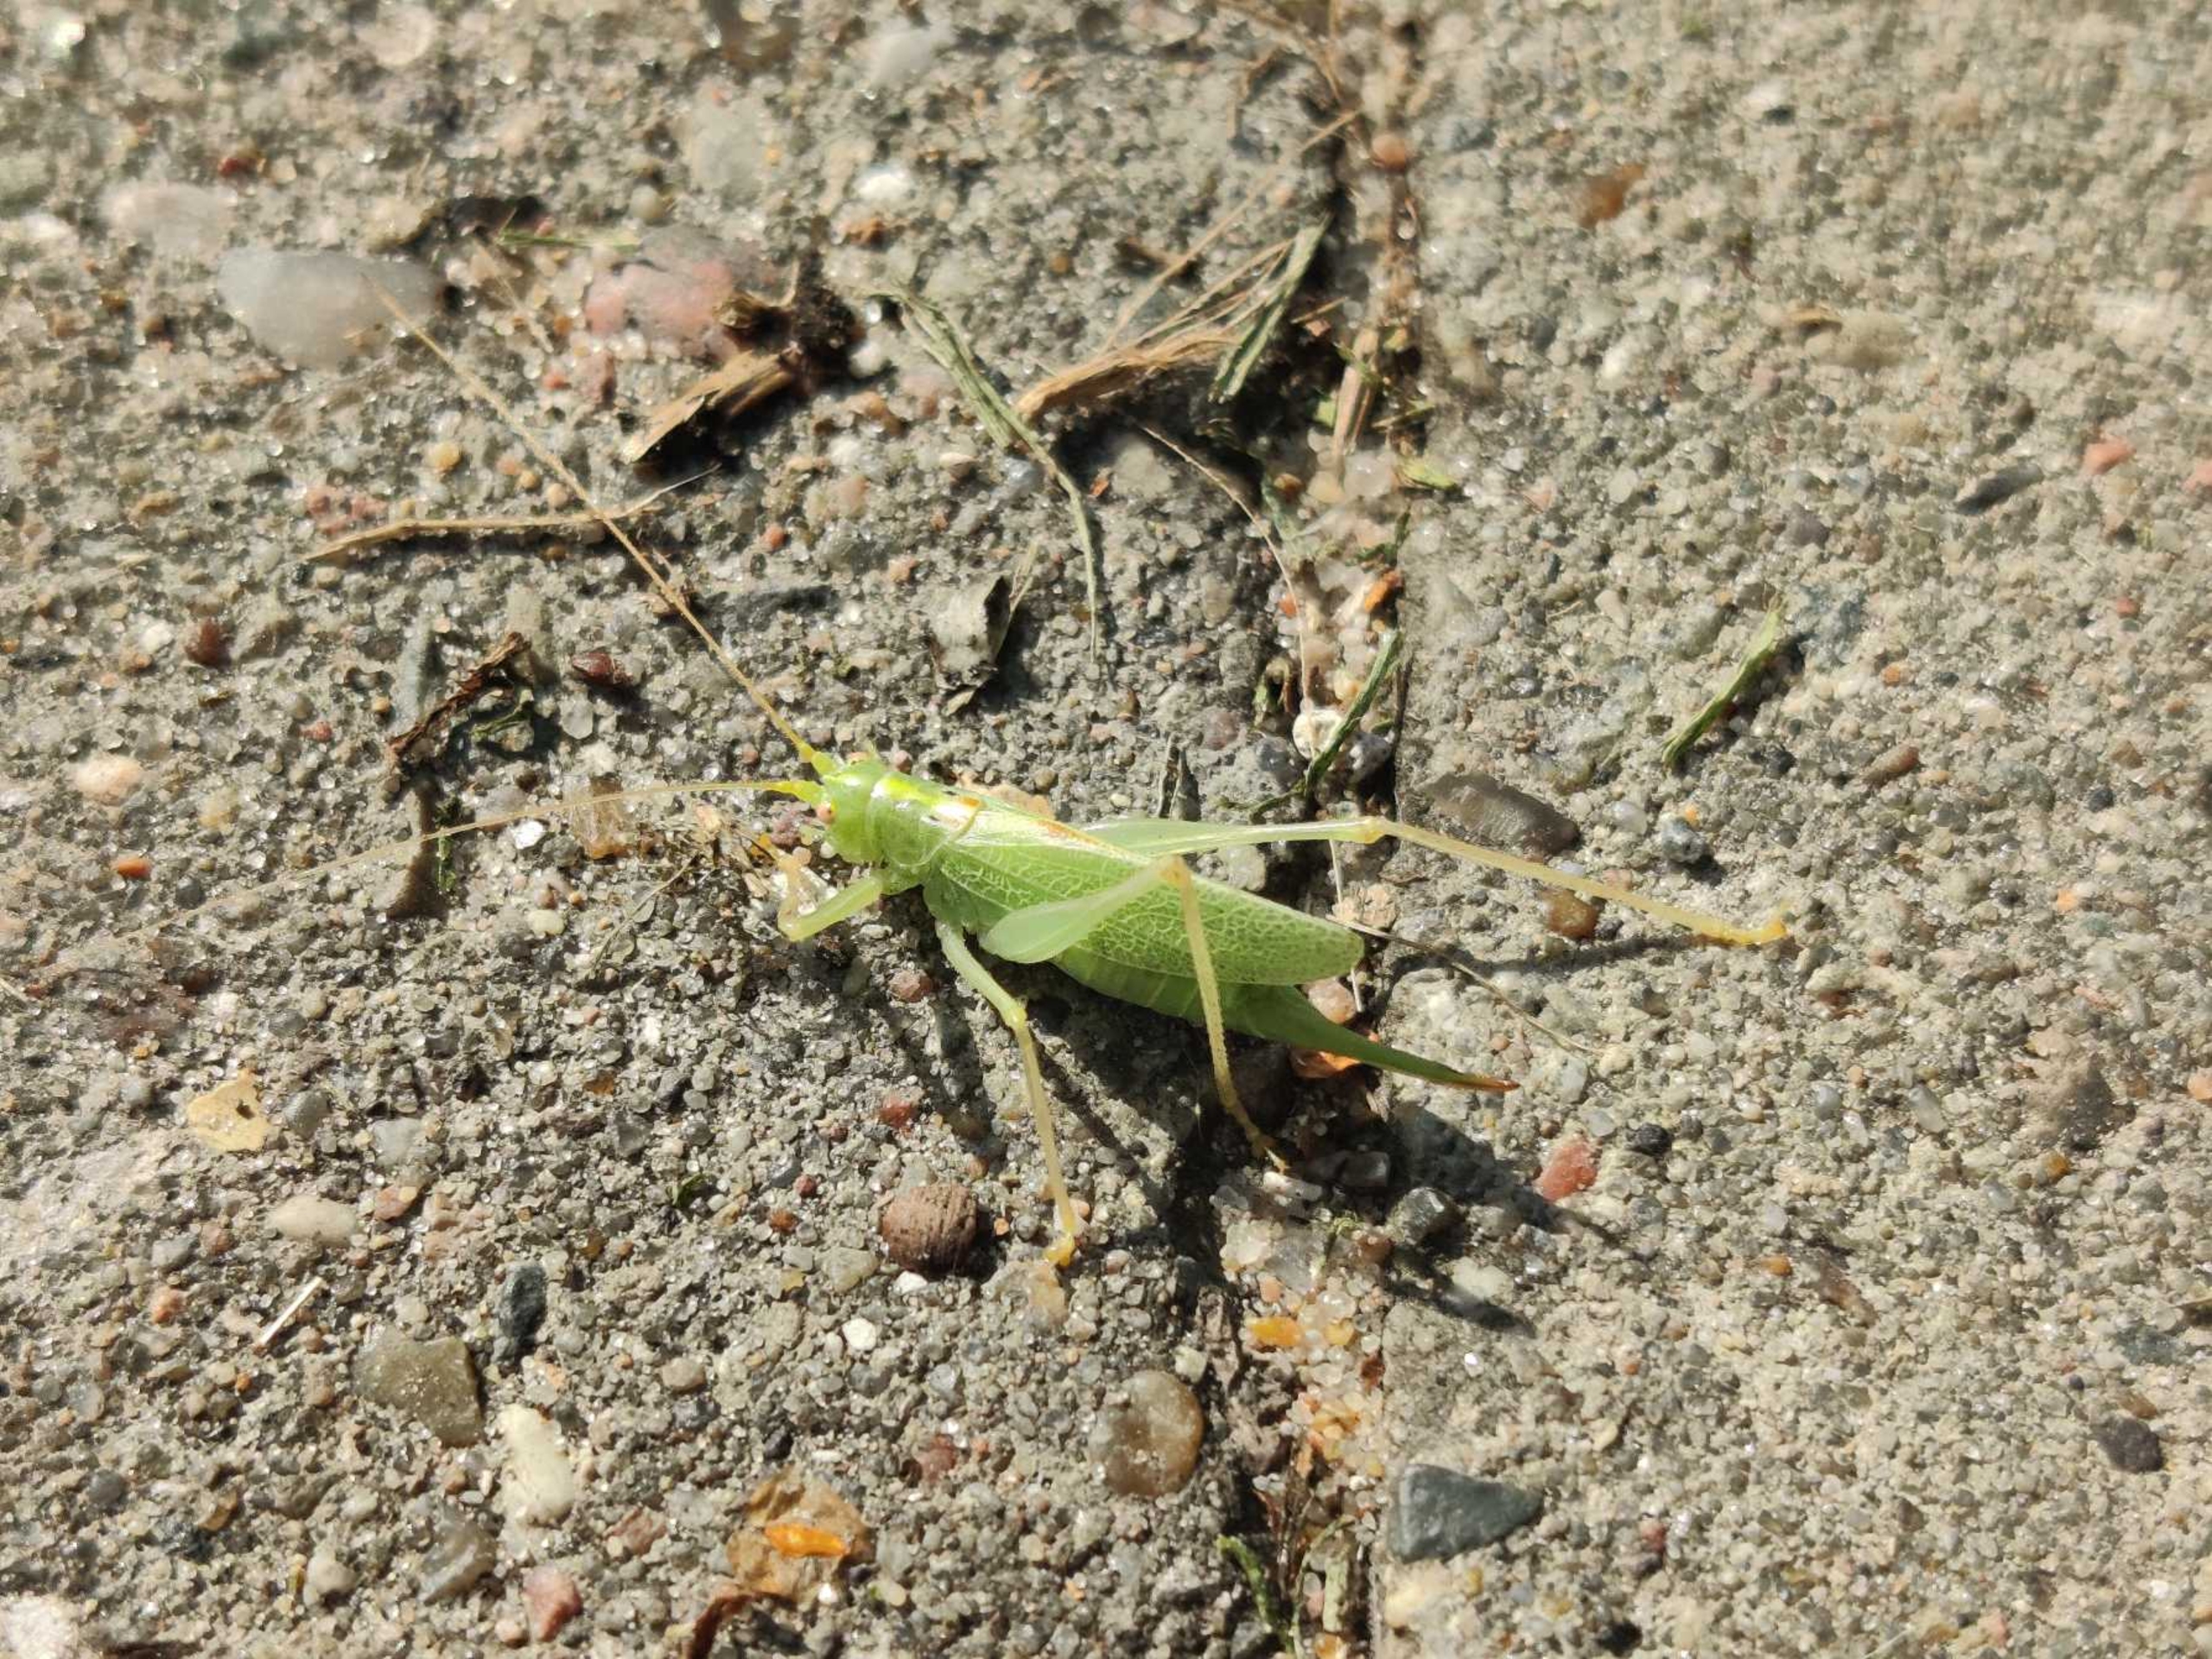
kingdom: Animalia
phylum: Arthropoda
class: Insecta
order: Orthoptera
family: Tettigoniidae
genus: Meconema
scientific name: Meconema thalassinum
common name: Egegræshoppe
